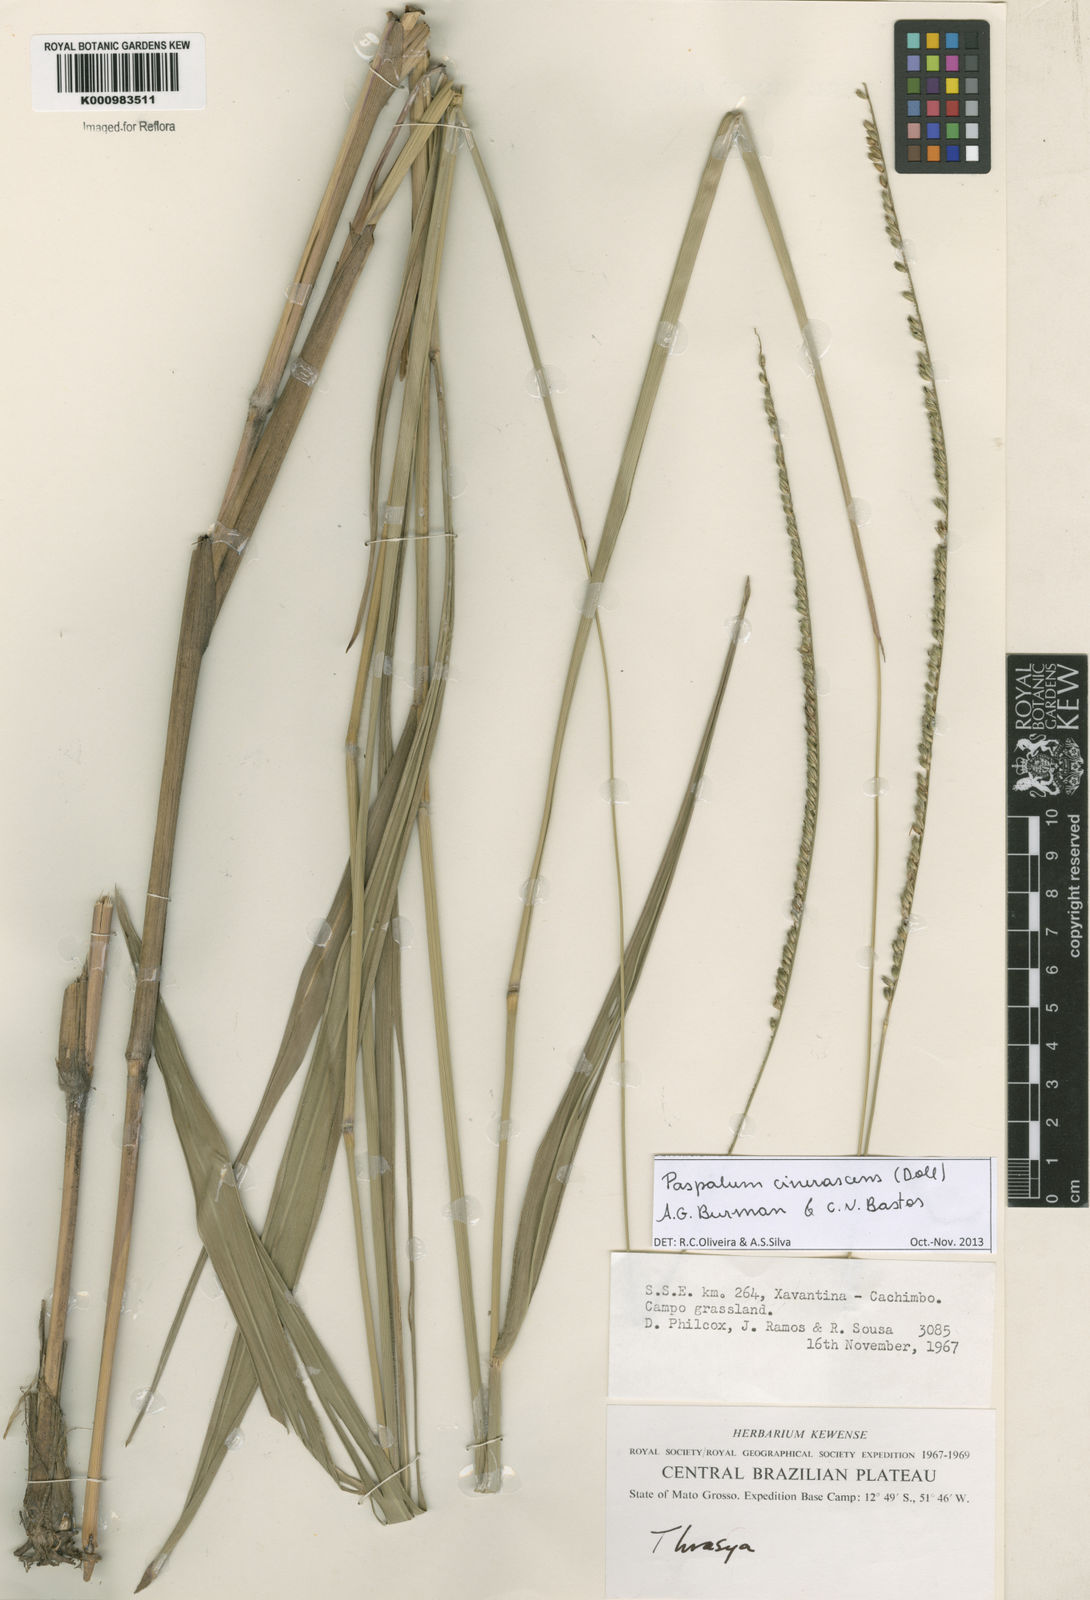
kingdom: Plantae
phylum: Tracheophyta
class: Liliopsida
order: Poales
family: Poaceae
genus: Paspalum
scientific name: Paspalum
